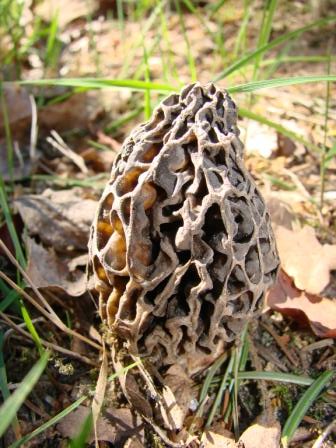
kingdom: Fungi
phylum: Ascomycota
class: Pezizomycetes
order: Pezizales
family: Morchellaceae
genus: Morchella
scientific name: Morchella
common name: morkel
